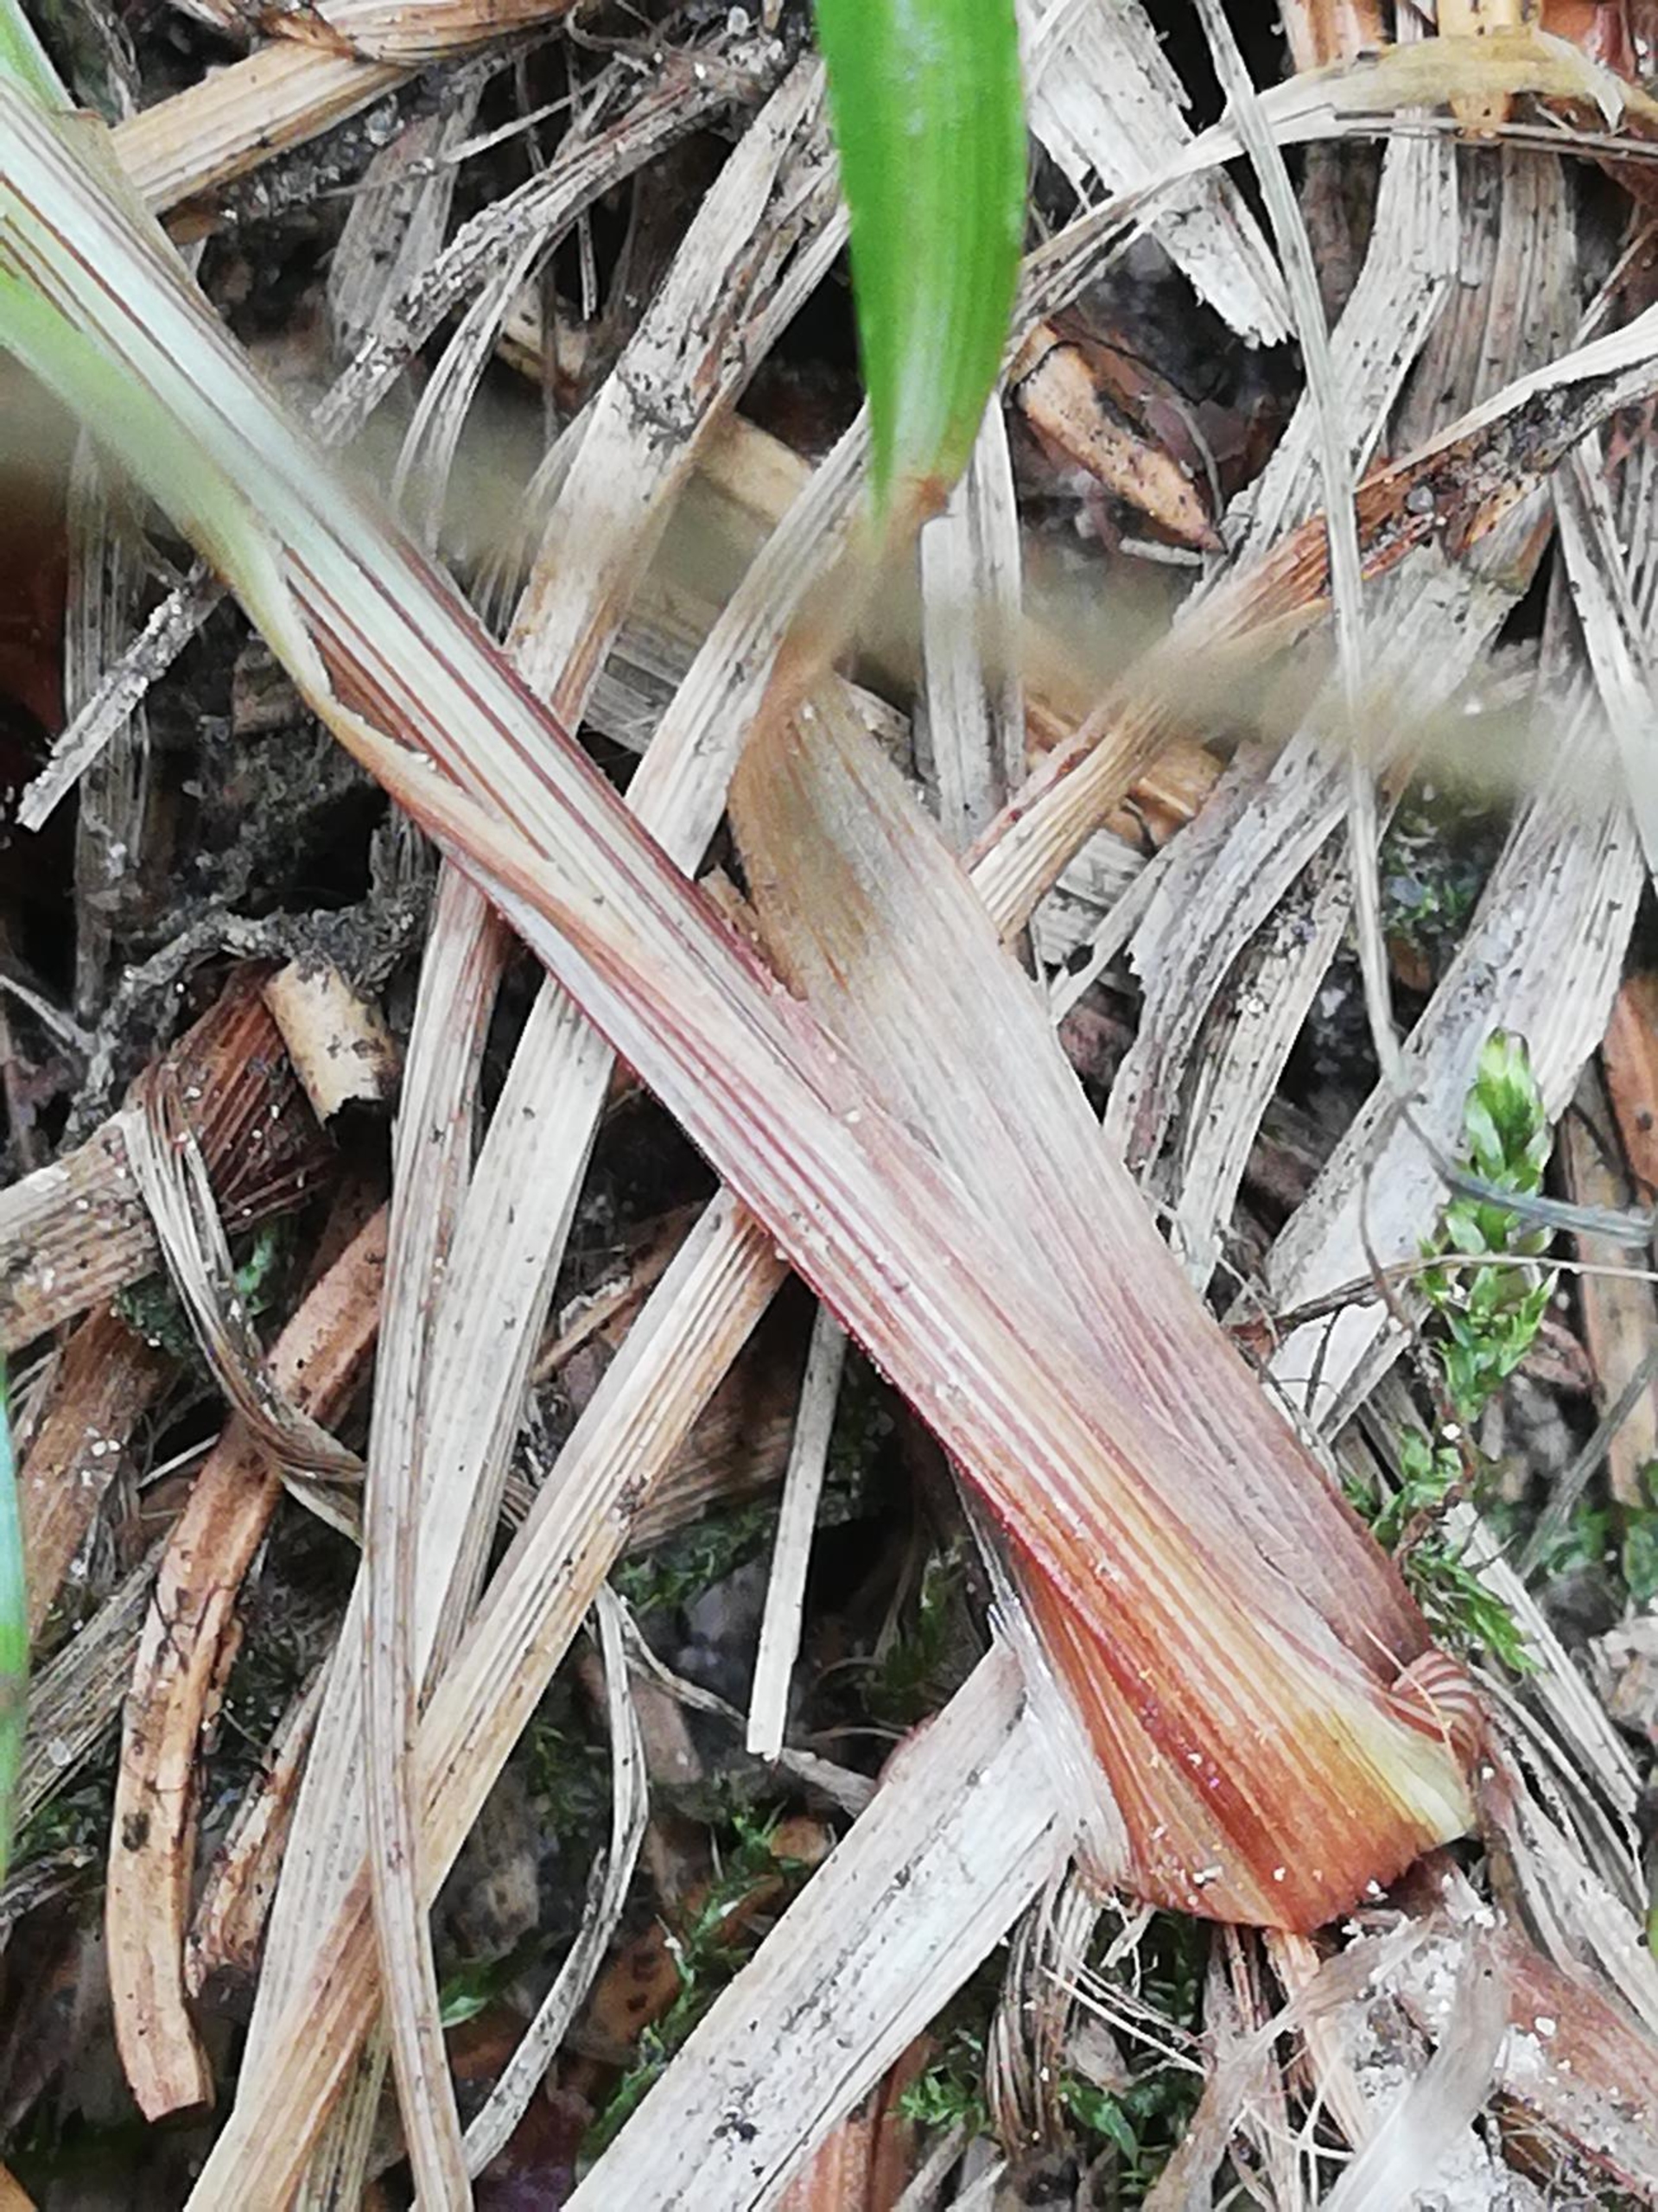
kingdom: Plantae
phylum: Tracheophyta
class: Liliopsida
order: Poales
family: Cyperaceae
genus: Carex
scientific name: Carex pilulifera
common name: Pille-star
